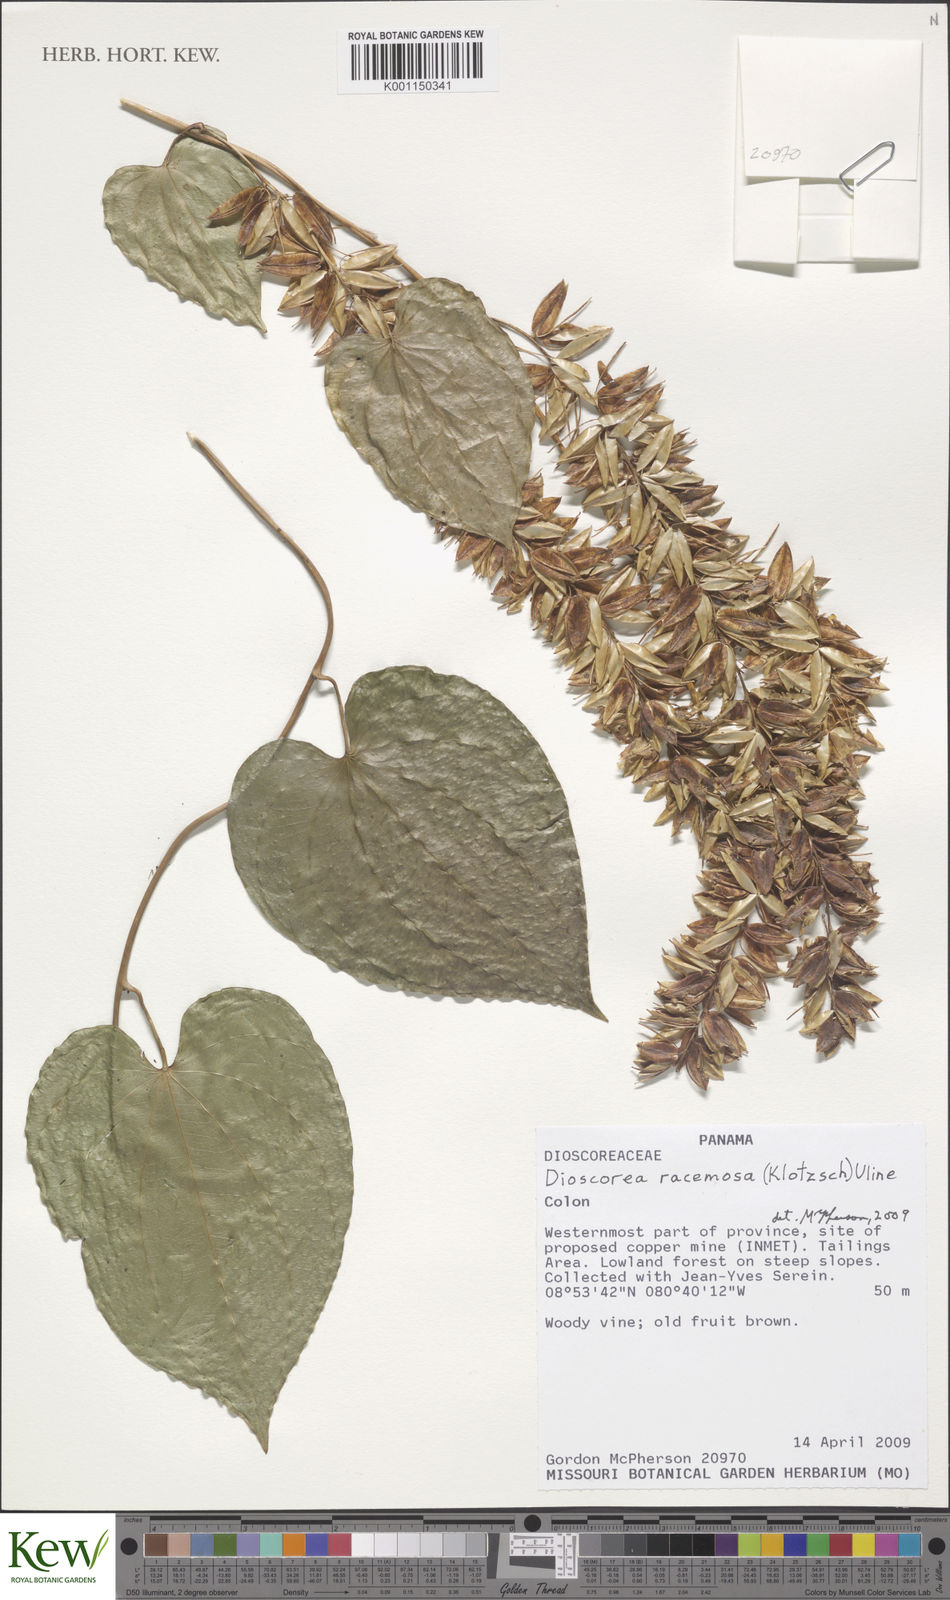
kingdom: Plantae
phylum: Tracheophyta
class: Liliopsida
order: Dioscoreales
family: Dioscoreaceae
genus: Dioscorea
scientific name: Dioscorea
